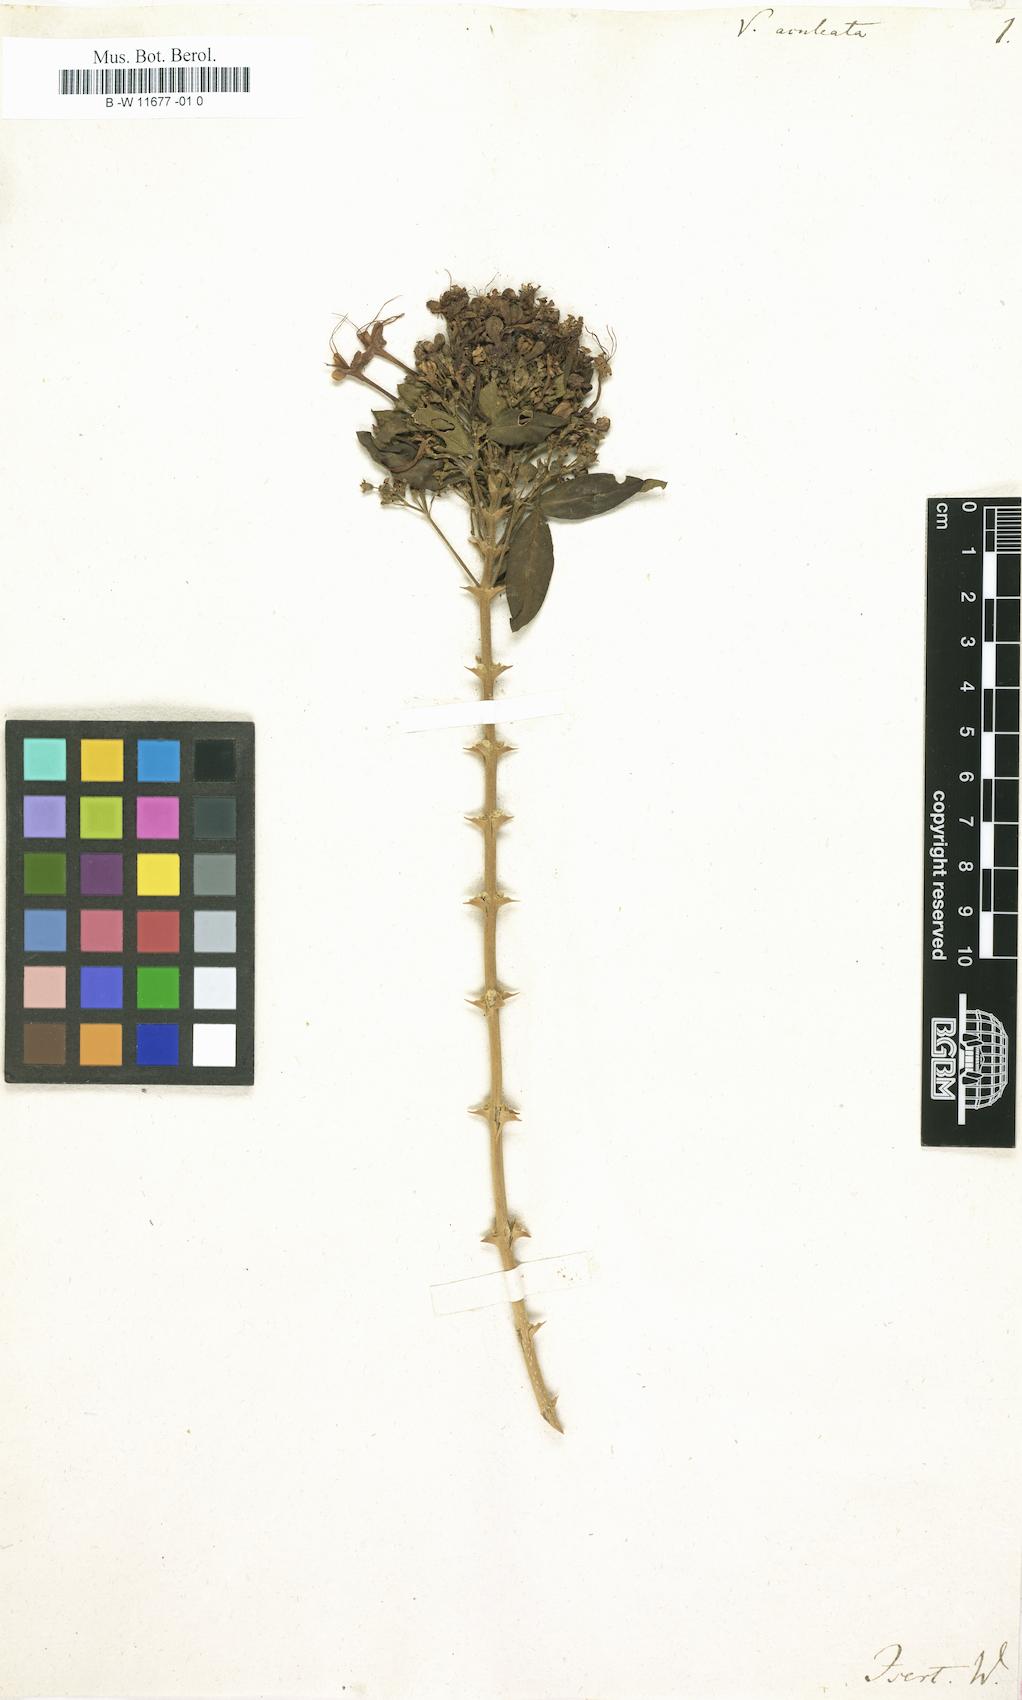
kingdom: Plantae
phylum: Tracheophyta
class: Magnoliopsida
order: Lamiales
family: Lamiaceae
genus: Volkameria
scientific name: Volkameria aculeata
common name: Prickly myrtle
